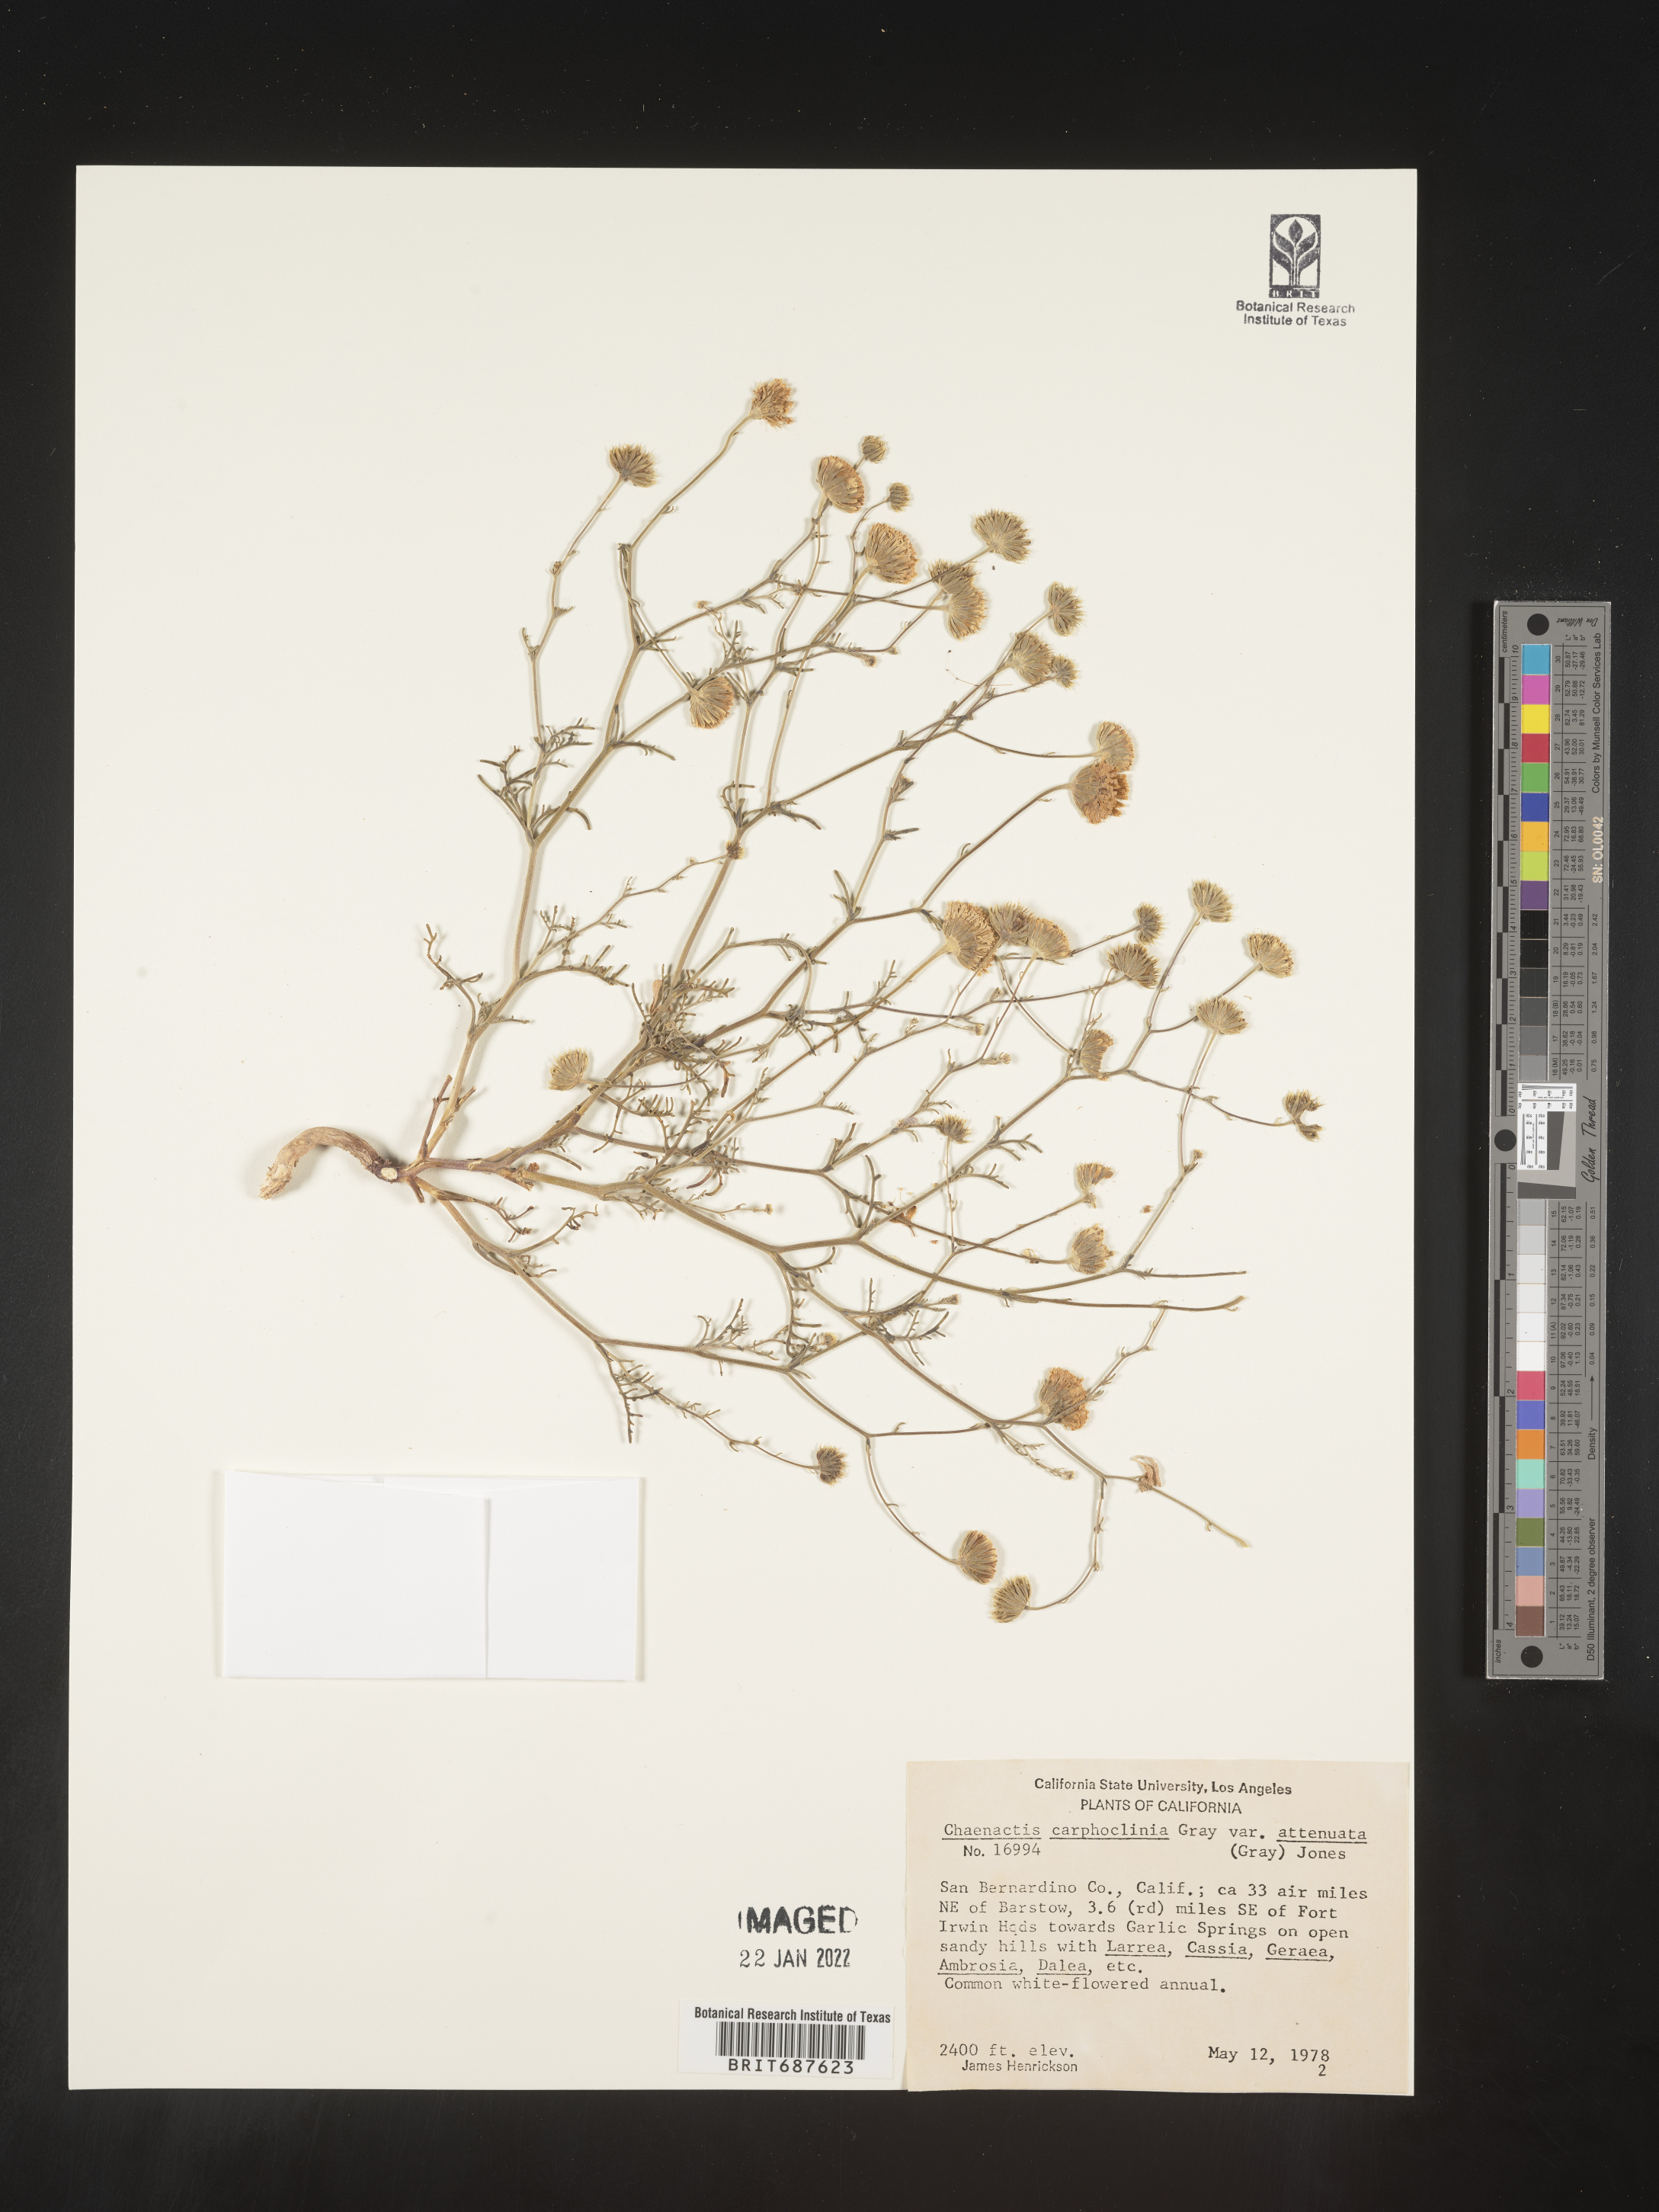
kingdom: Plantae
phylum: Tracheophyta
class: Magnoliopsida
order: Asterales
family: Asteraceae
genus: Chaenactis
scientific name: Chaenactis carphoclinia
